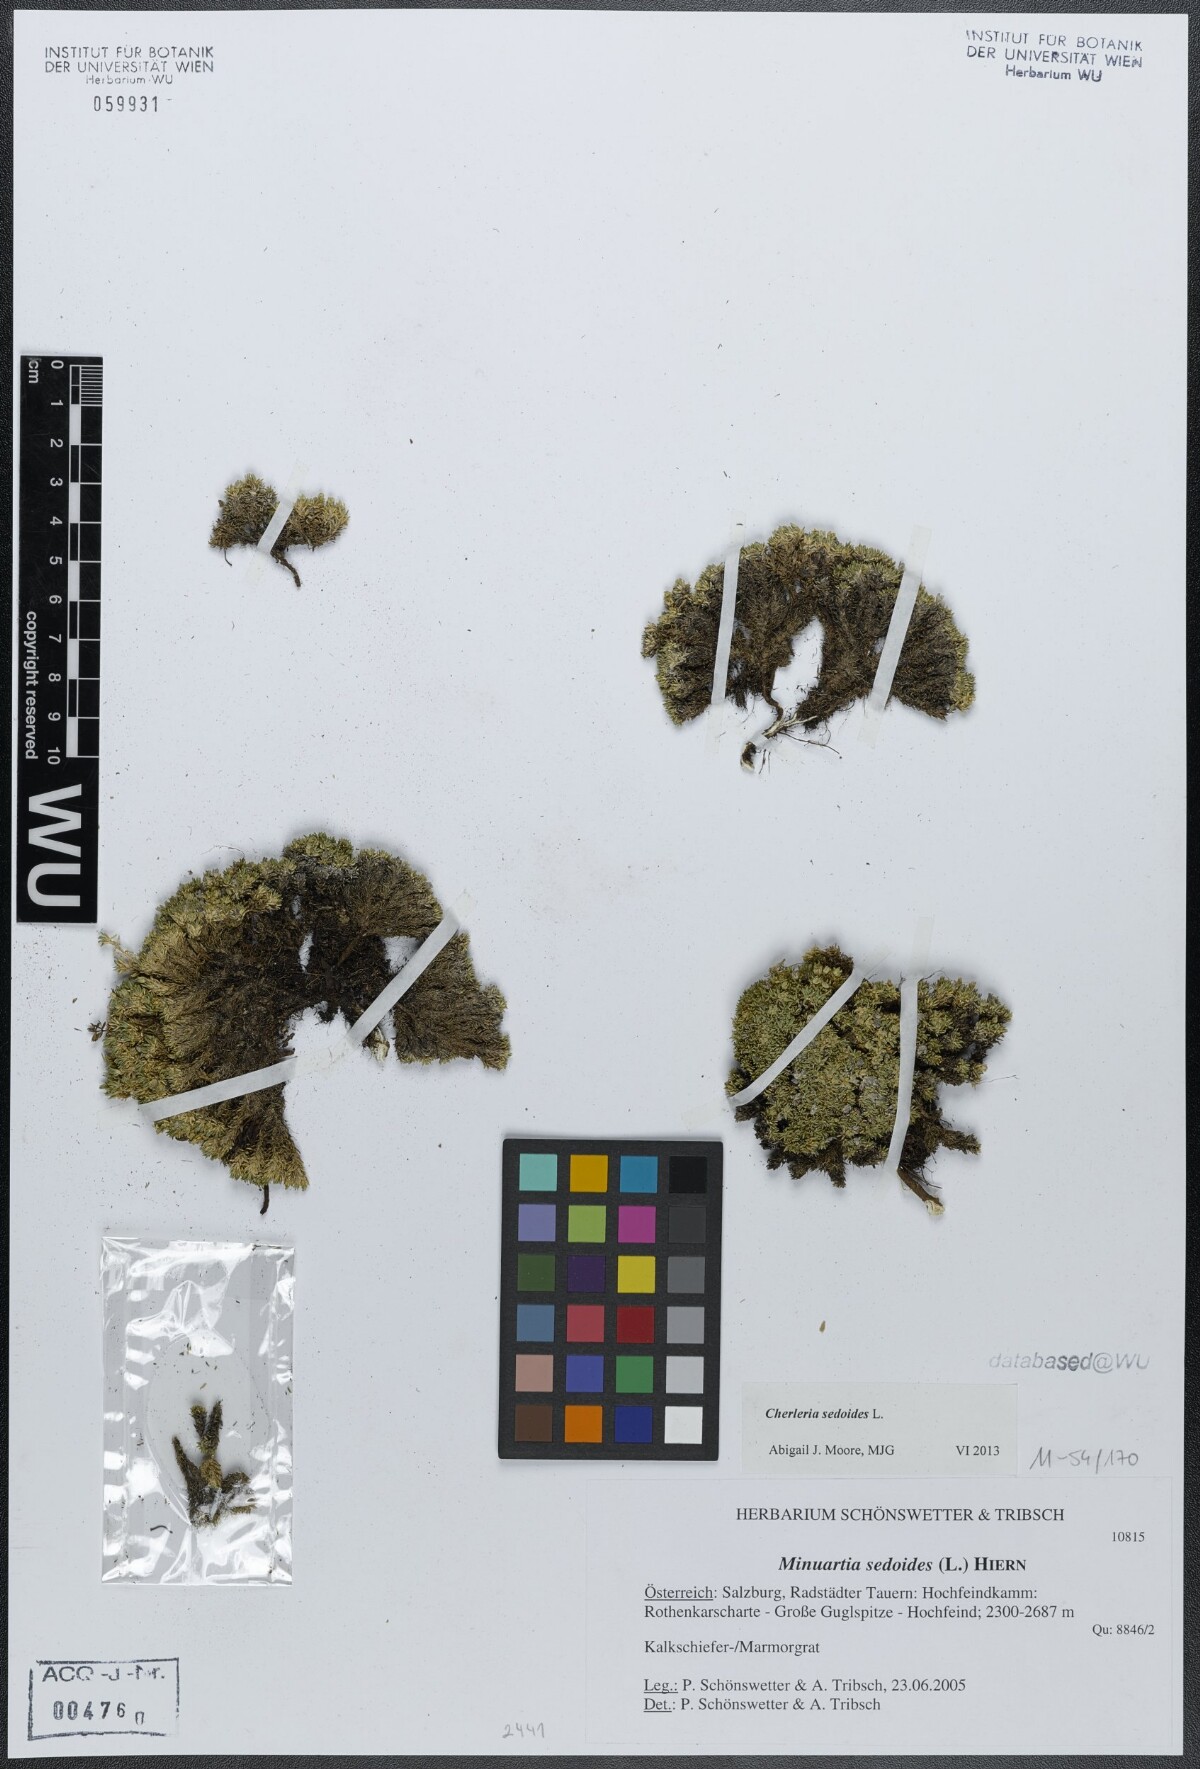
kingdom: Plantae
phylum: Tracheophyta
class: Magnoliopsida
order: Caryophyllales
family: Caryophyllaceae
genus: Cherleria
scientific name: Cherleria sedoides
